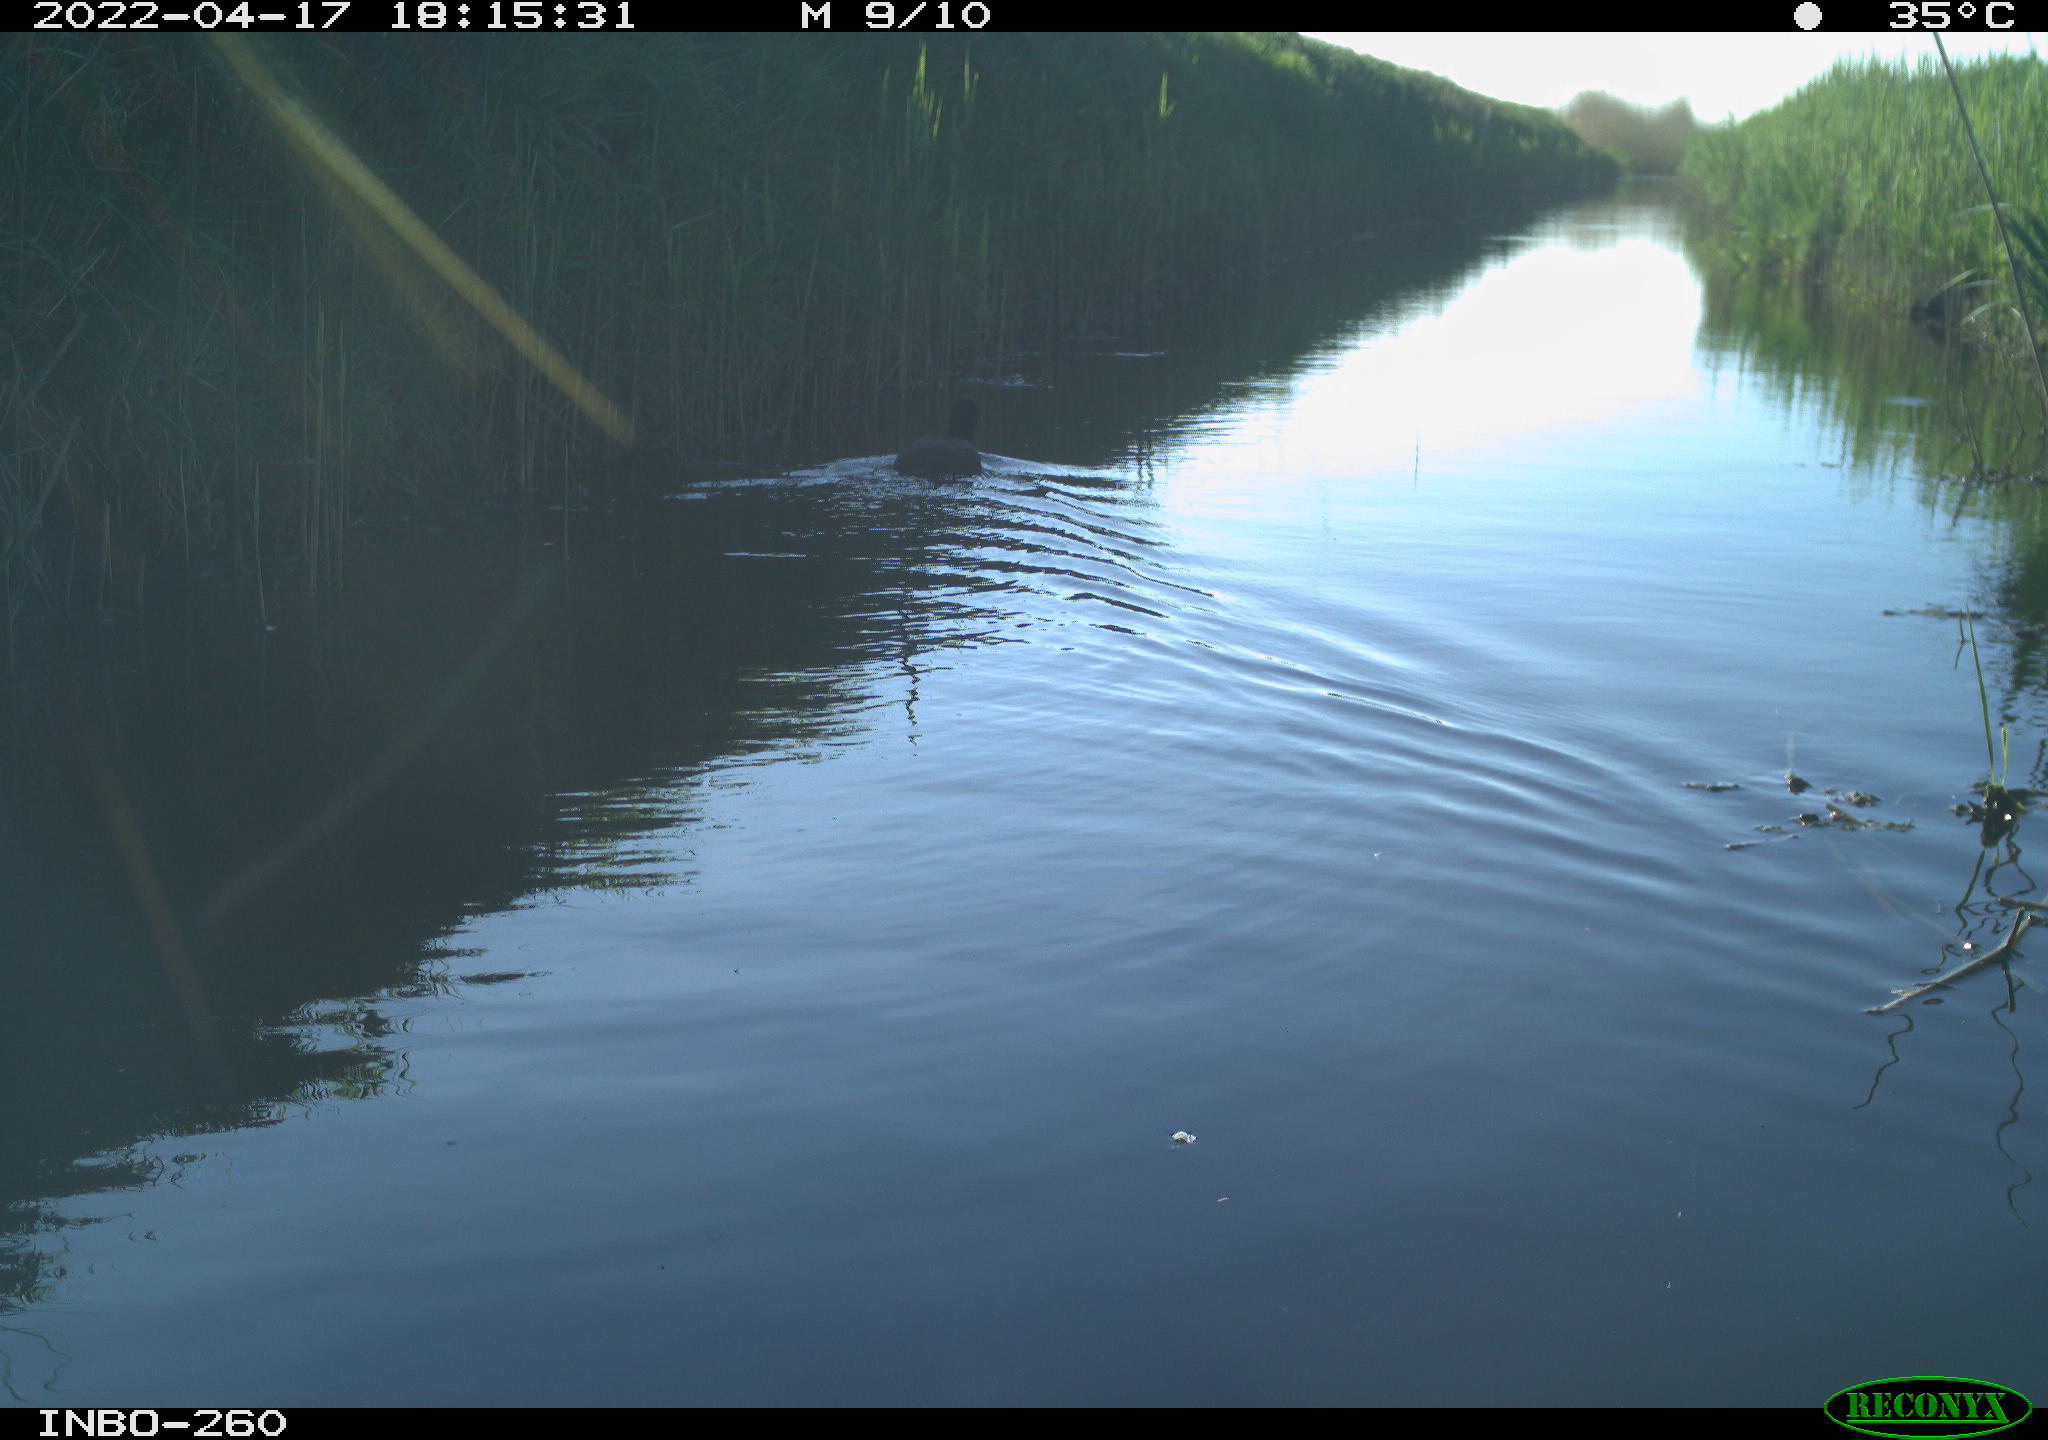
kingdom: Animalia
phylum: Chordata
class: Aves
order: Gruiformes
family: Rallidae
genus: Fulica
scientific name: Fulica atra
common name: Eurasian coot
